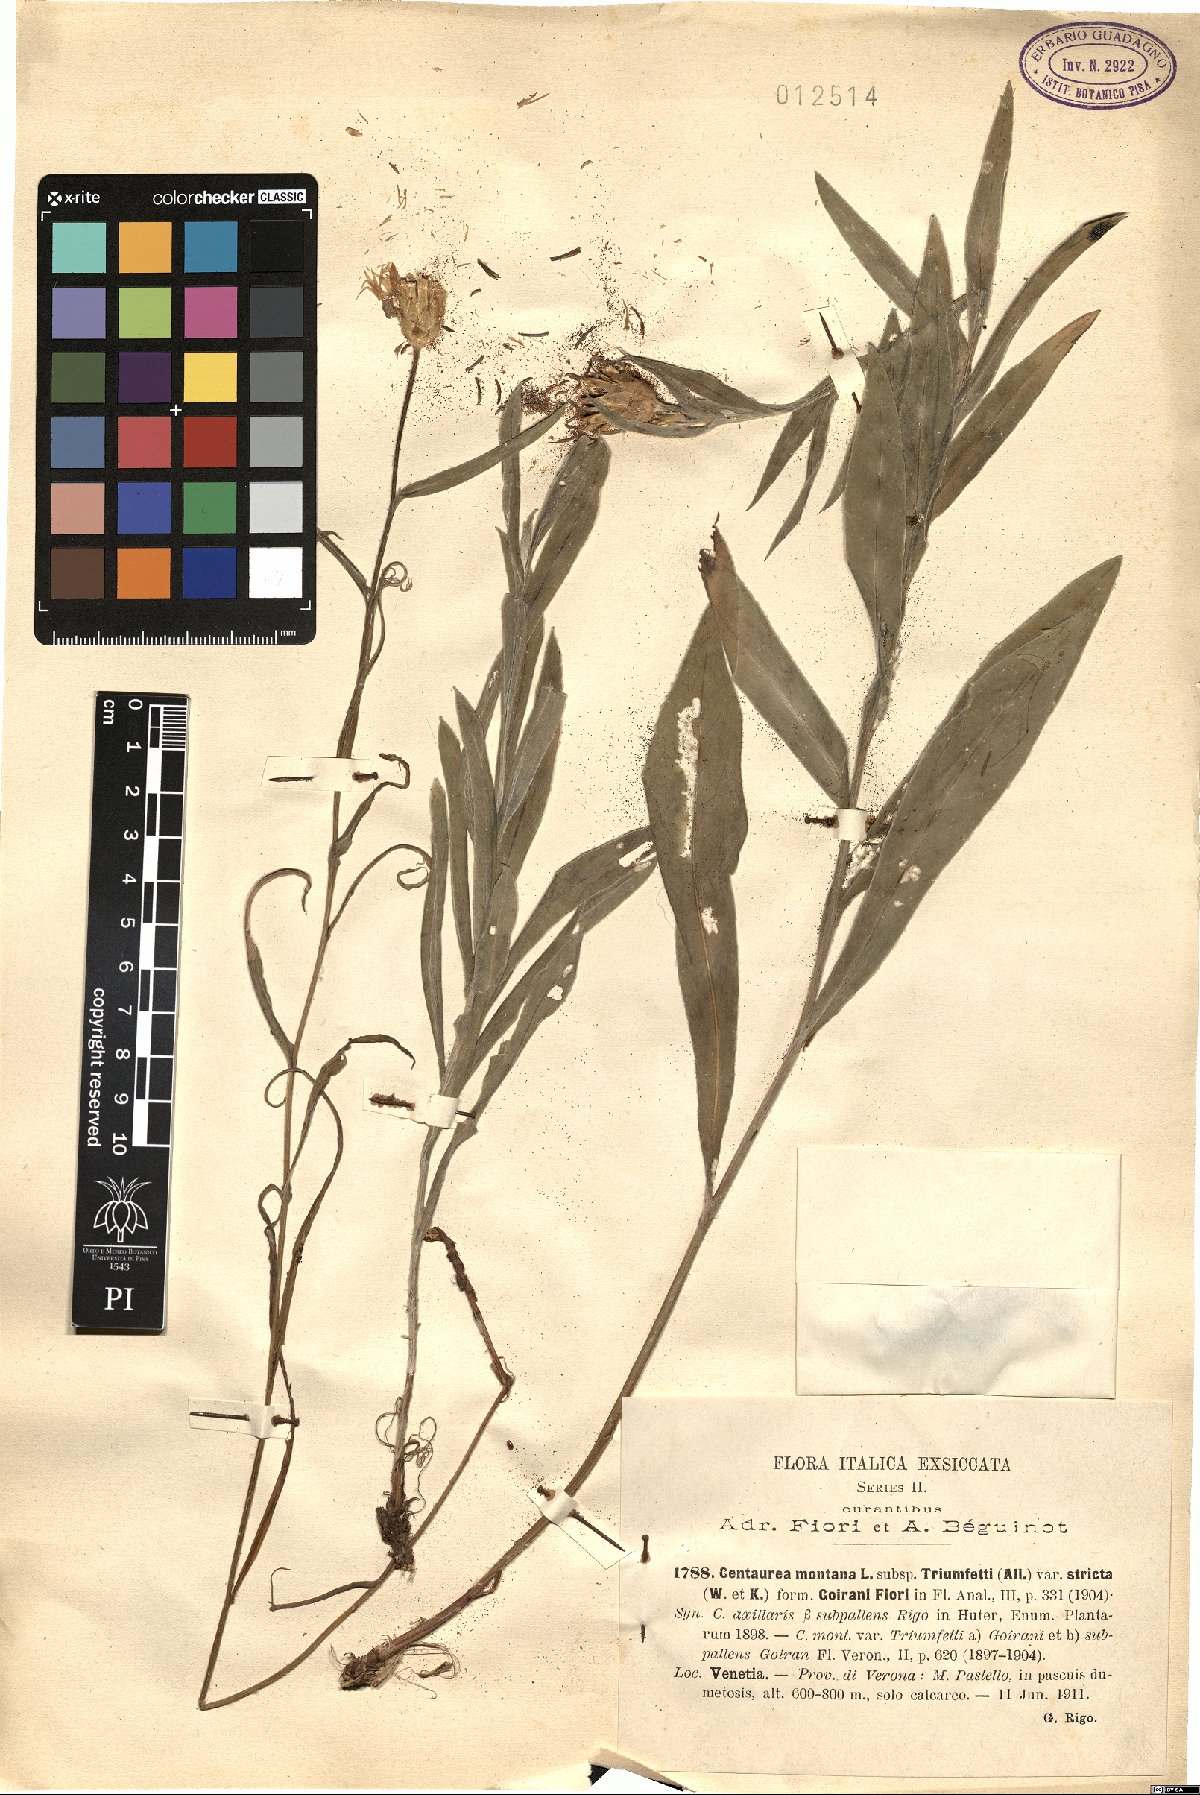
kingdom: Plantae
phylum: Tracheophyta
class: Magnoliopsida
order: Asterales
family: Asteraceae
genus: Centaurea
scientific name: Centaurea montana
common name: Perennial cornflower
